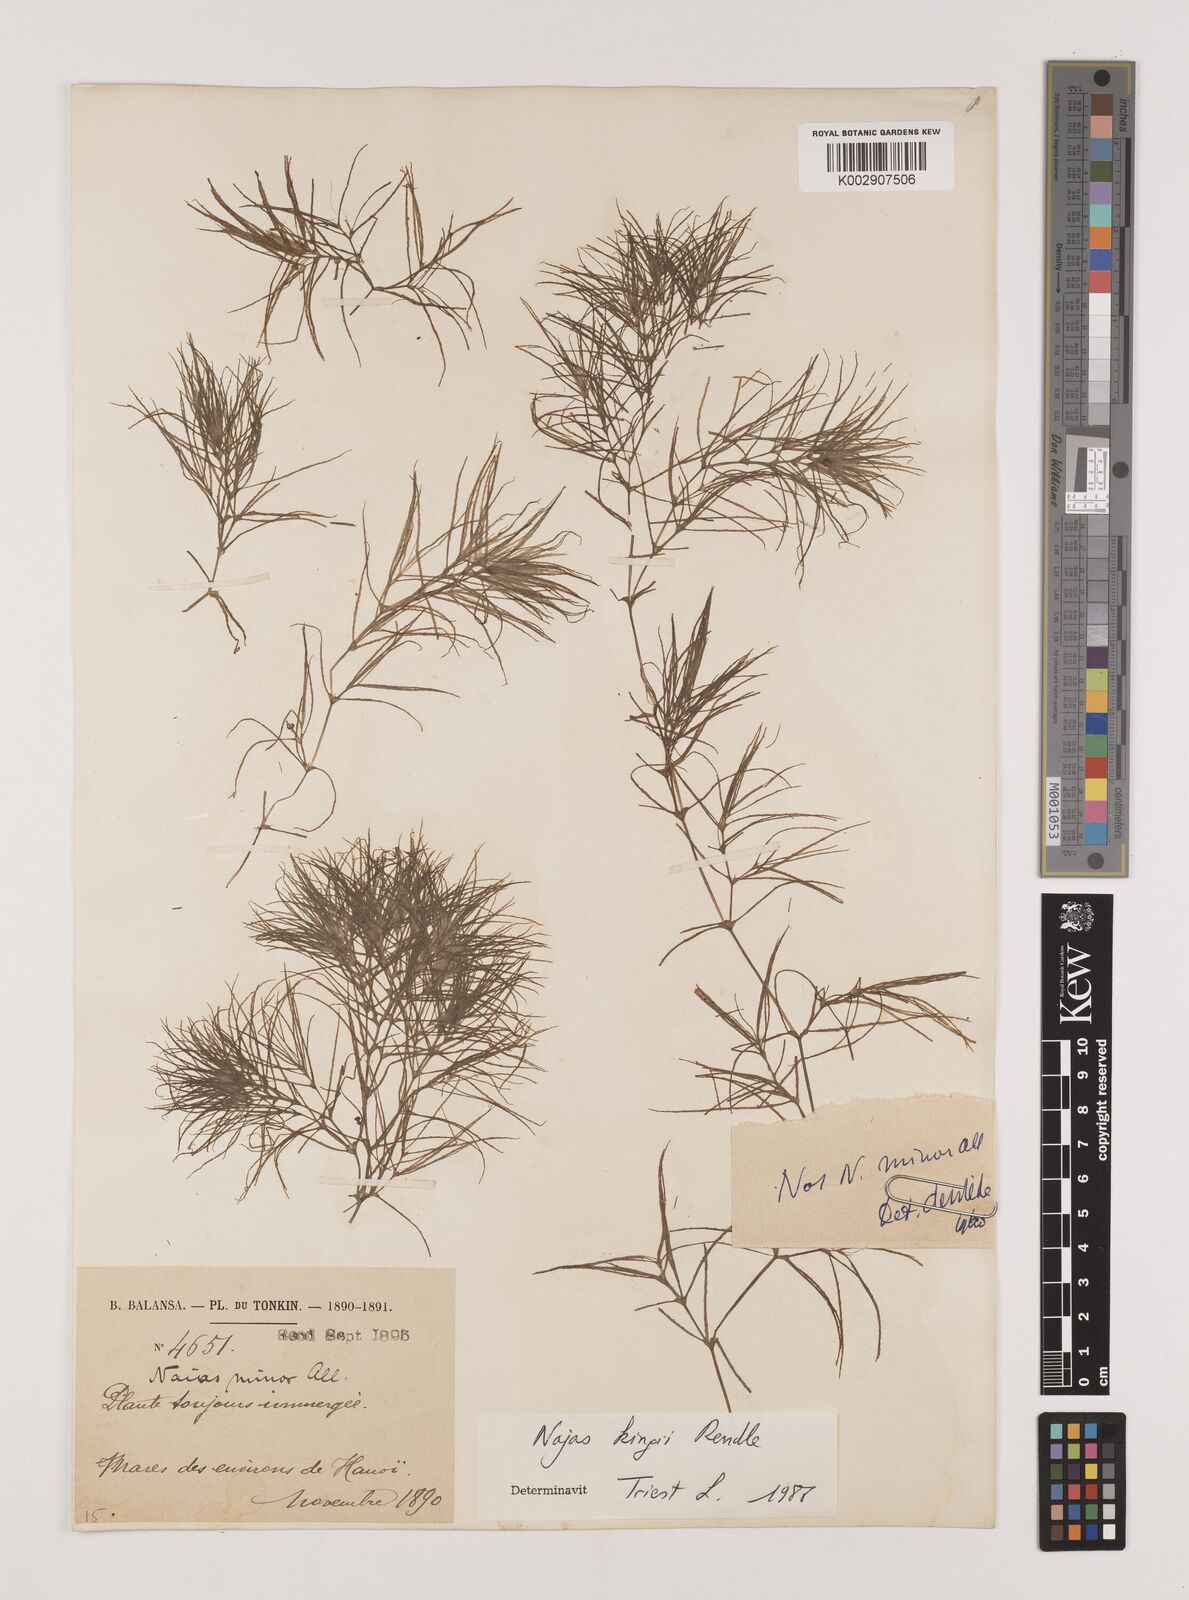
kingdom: Plantae
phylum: Tracheophyta
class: Liliopsida
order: Alismatales
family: Hydrocharitaceae
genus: Najas
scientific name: Najas indica
